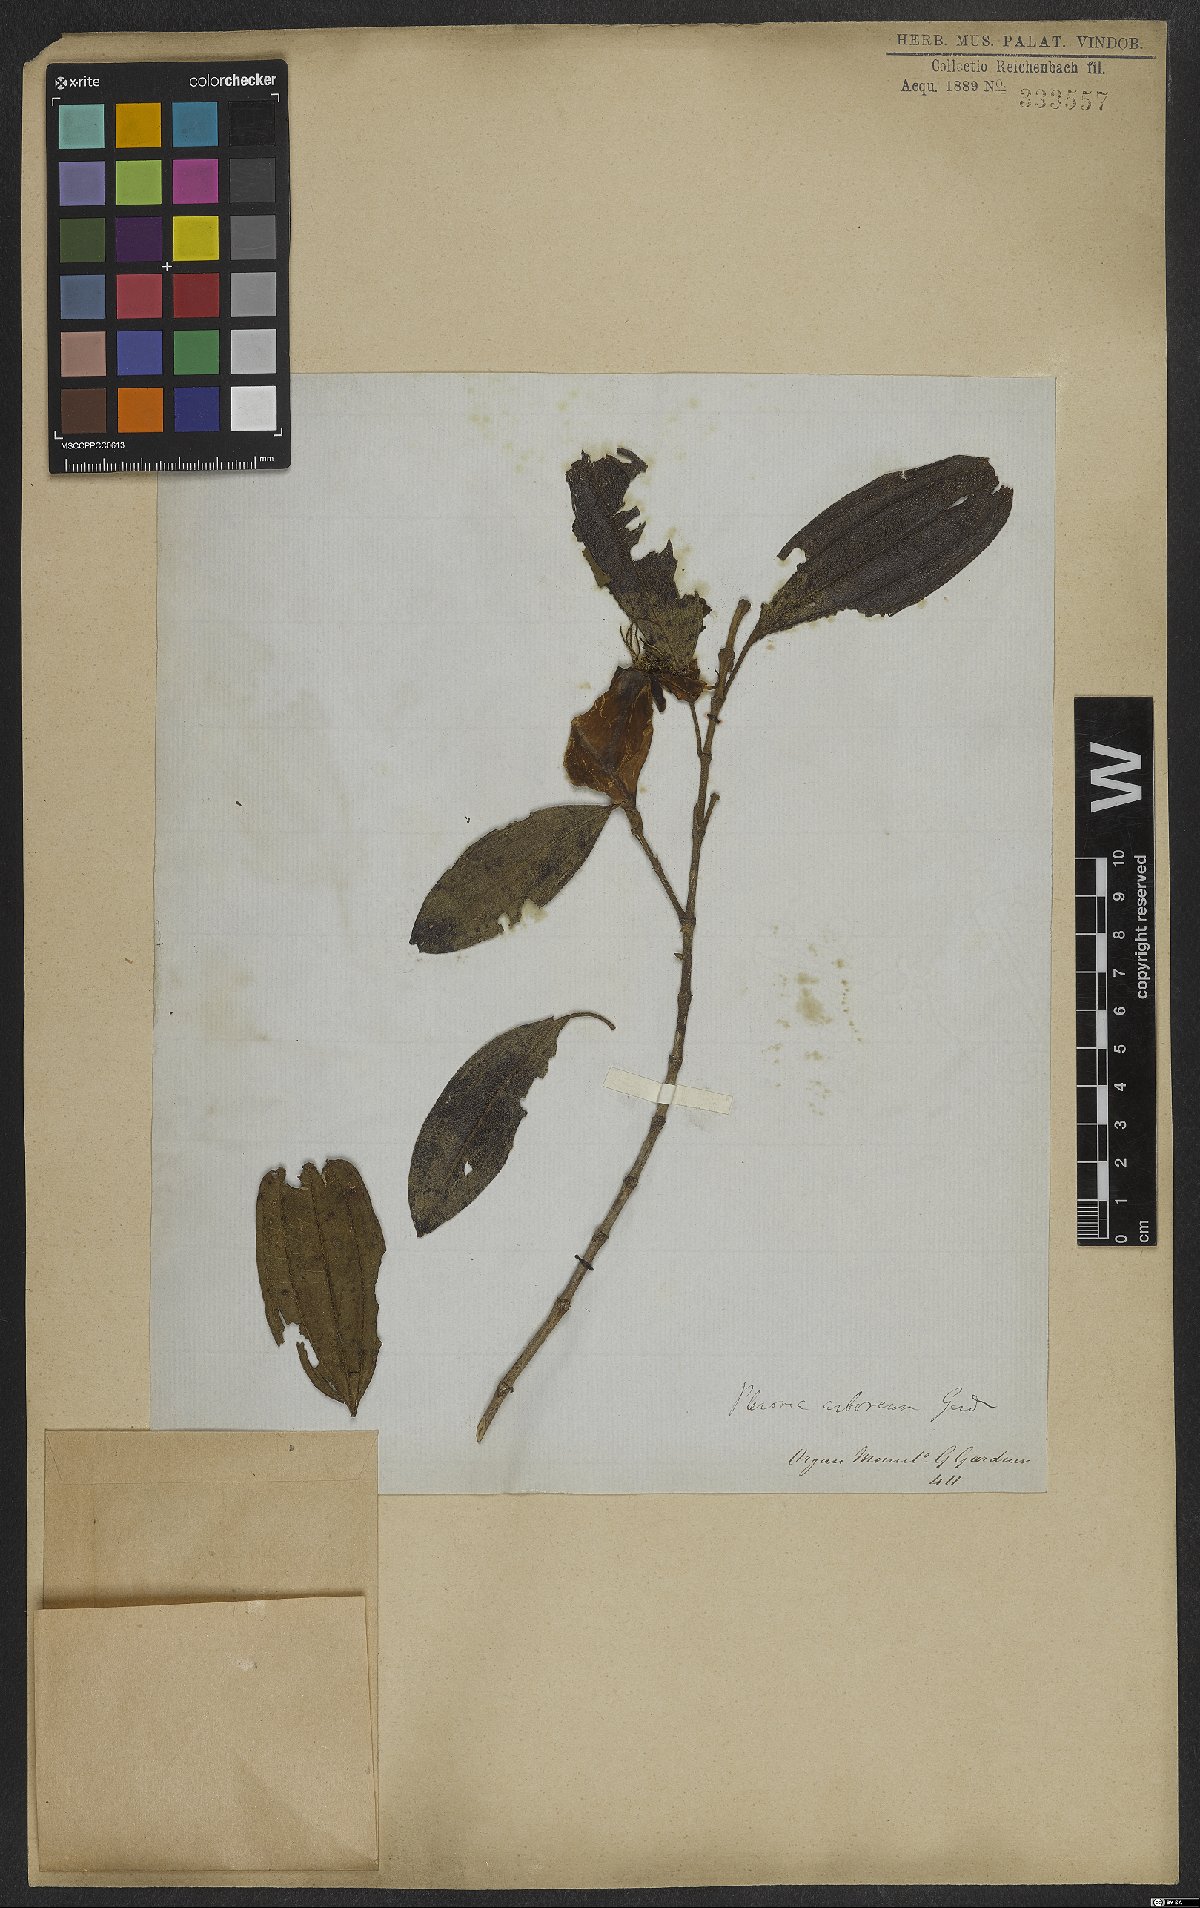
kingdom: Plantae
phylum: Tracheophyta
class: Magnoliopsida
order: Myrtales
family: Melastomataceae
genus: Pleroma
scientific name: Pleroma arboreum
